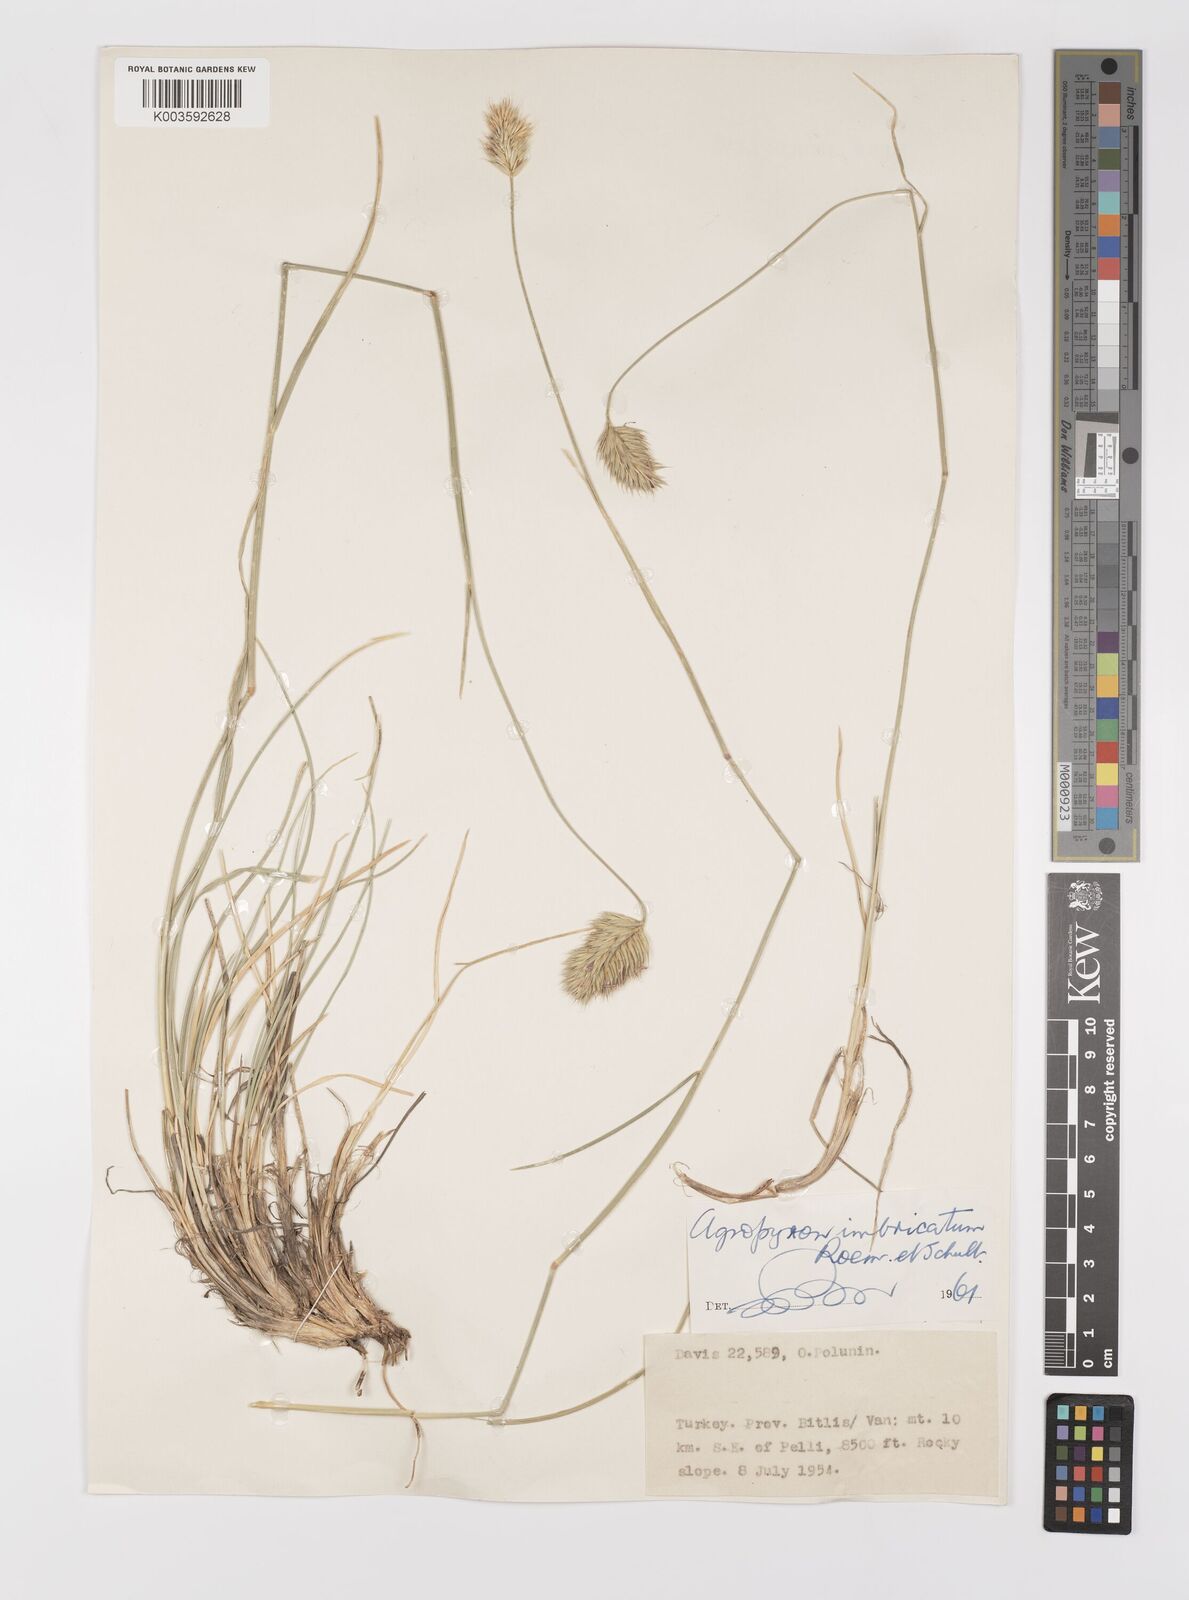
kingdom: Plantae
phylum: Tracheophyta
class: Liliopsida
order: Poales
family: Poaceae
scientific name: Poaceae
